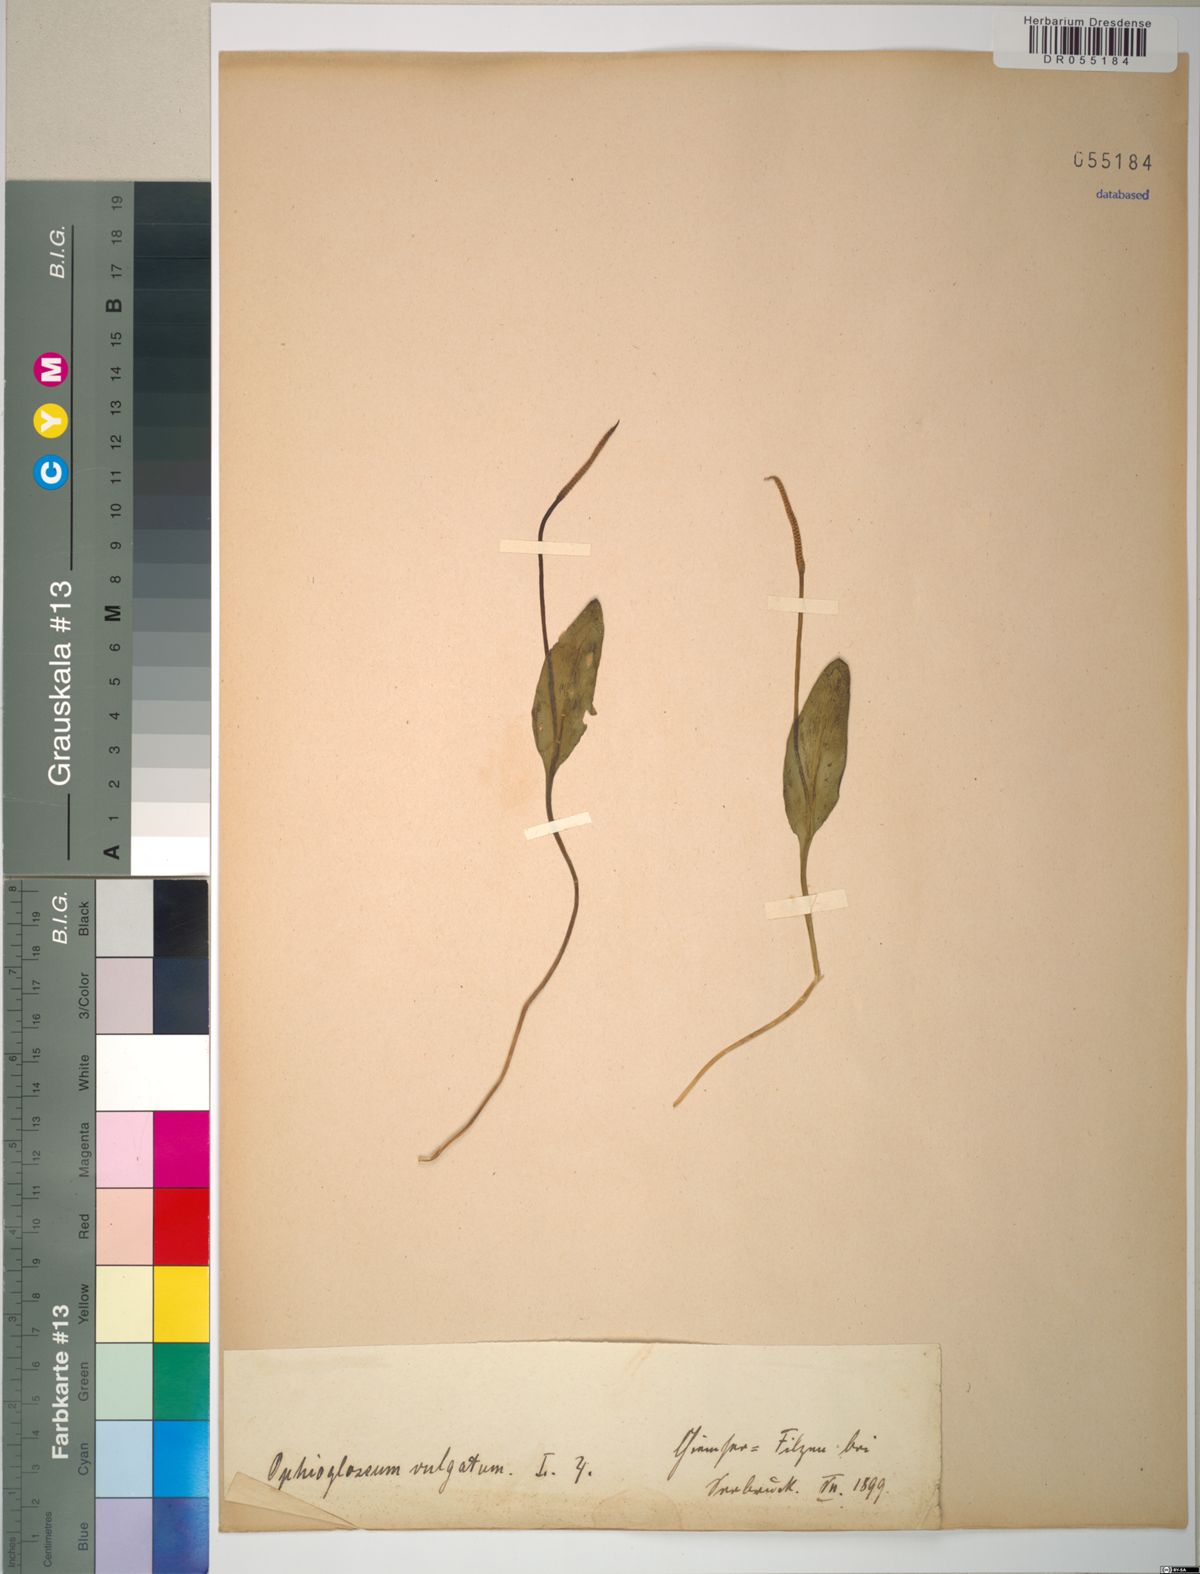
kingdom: Plantae
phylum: Tracheophyta
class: Polypodiopsida
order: Ophioglossales
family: Ophioglossaceae
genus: Ophioglossum
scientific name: Ophioglossum vulgatum
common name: Adder's-tongue
